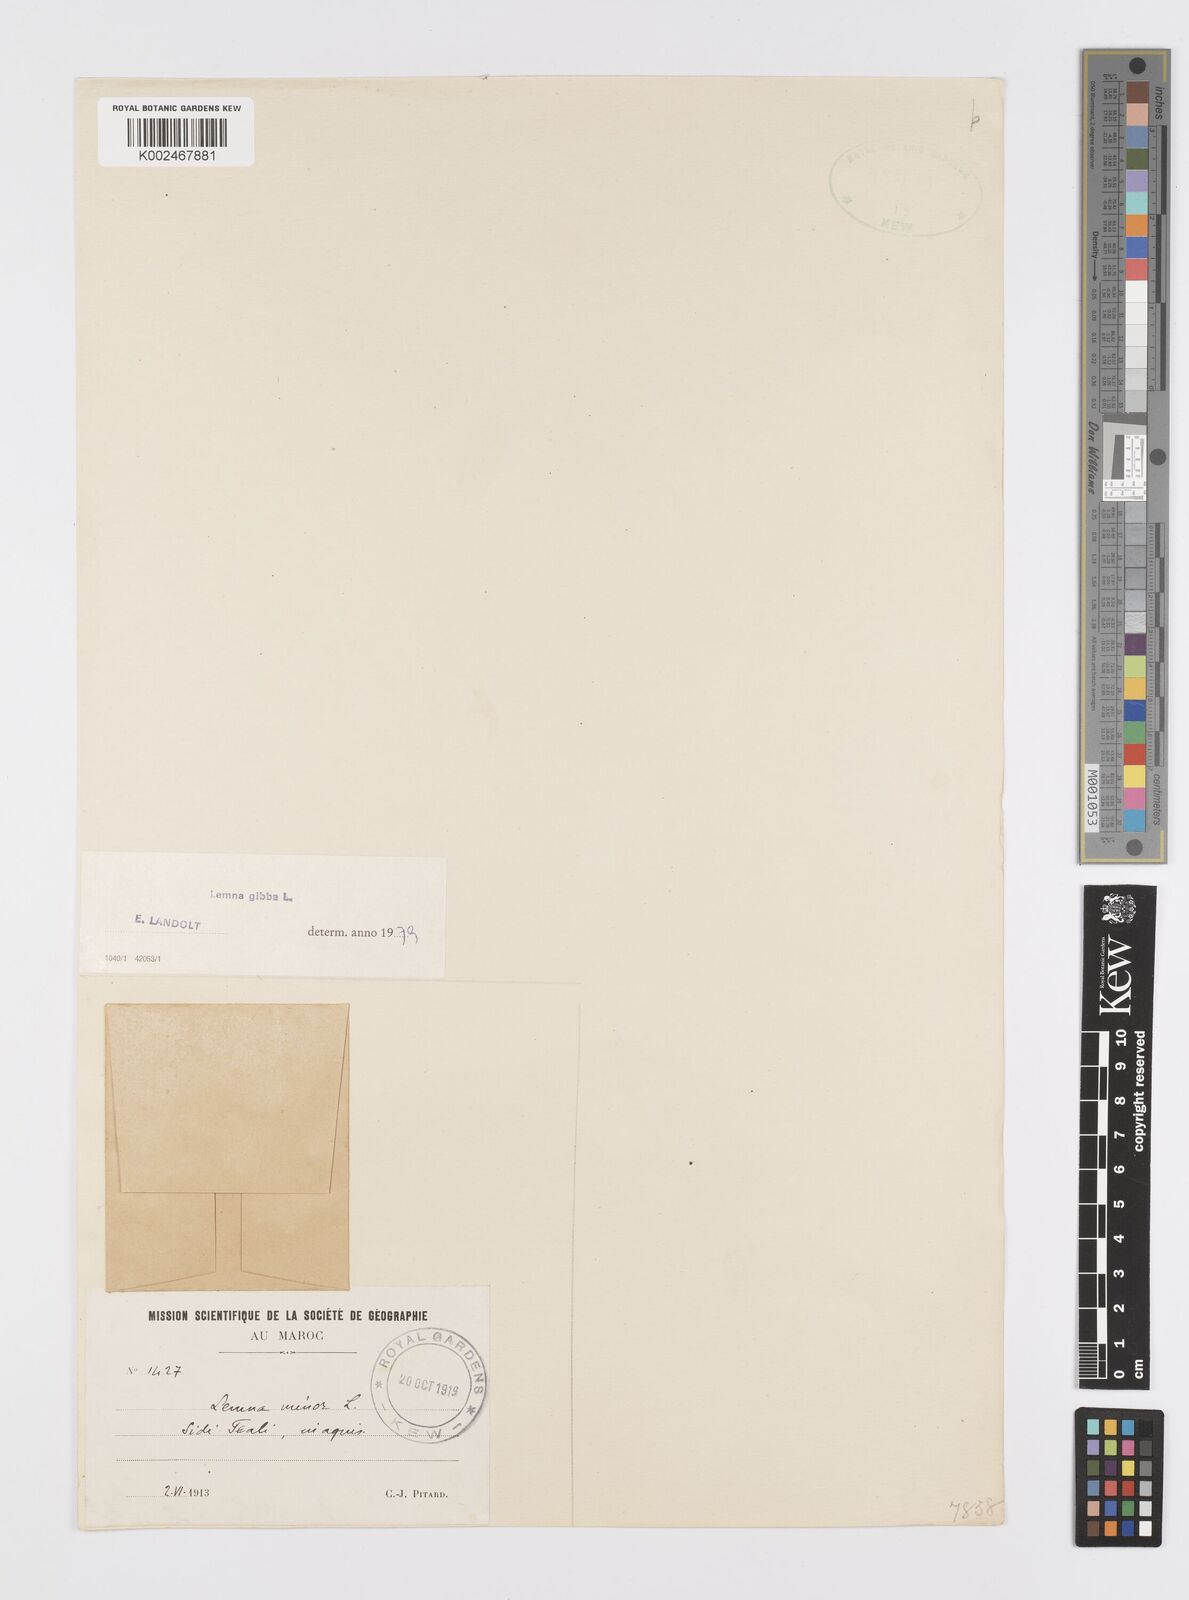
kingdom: Plantae
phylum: Tracheophyta
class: Liliopsida
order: Alismatales
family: Araceae
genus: Lemna
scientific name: Lemna gibba
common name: Fat duckweed
